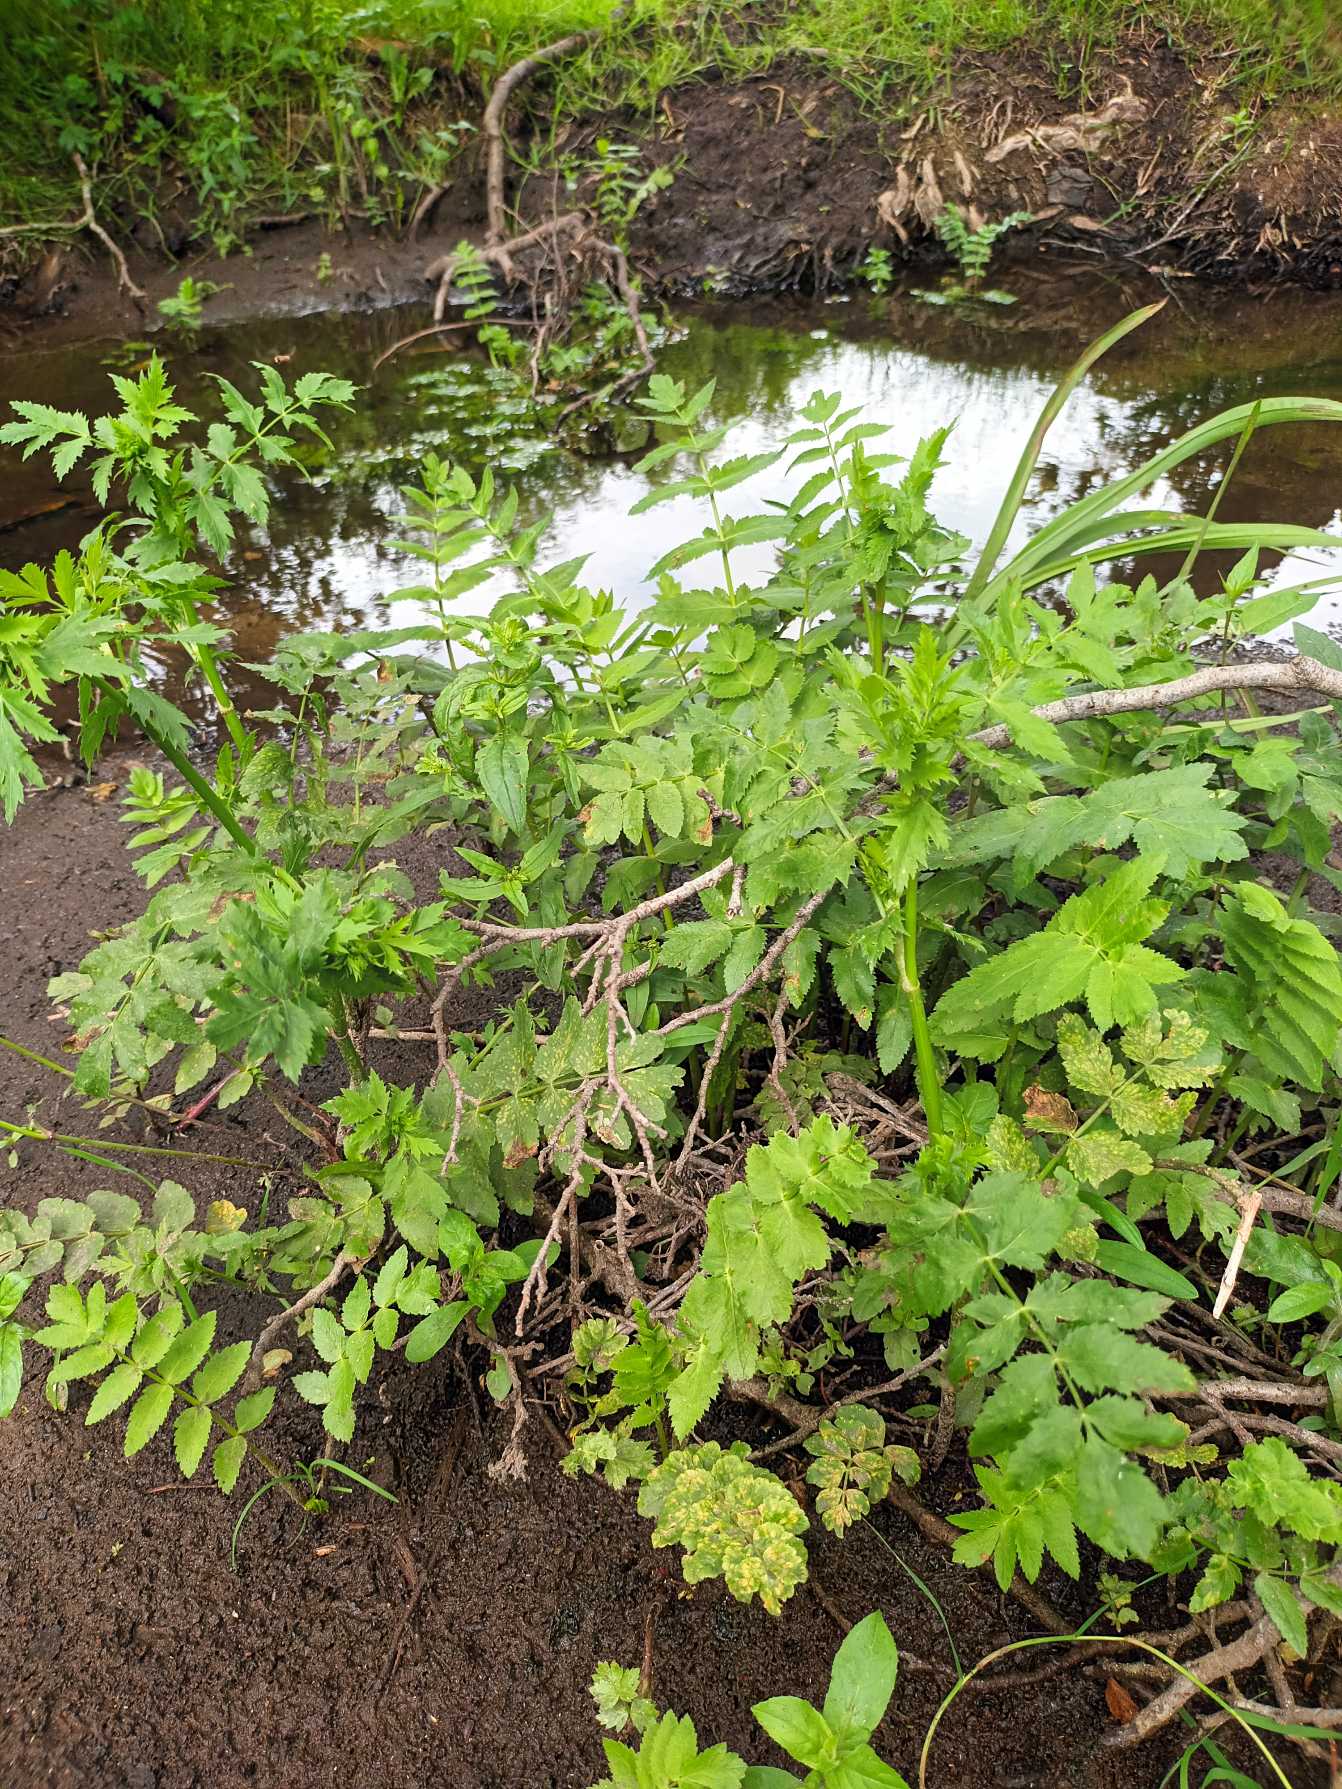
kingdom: Plantae
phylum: Tracheophyta
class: Magnoliopsida
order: Apiales
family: Apiaceae
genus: Berula
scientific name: Berula erecta
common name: Sideskærm
